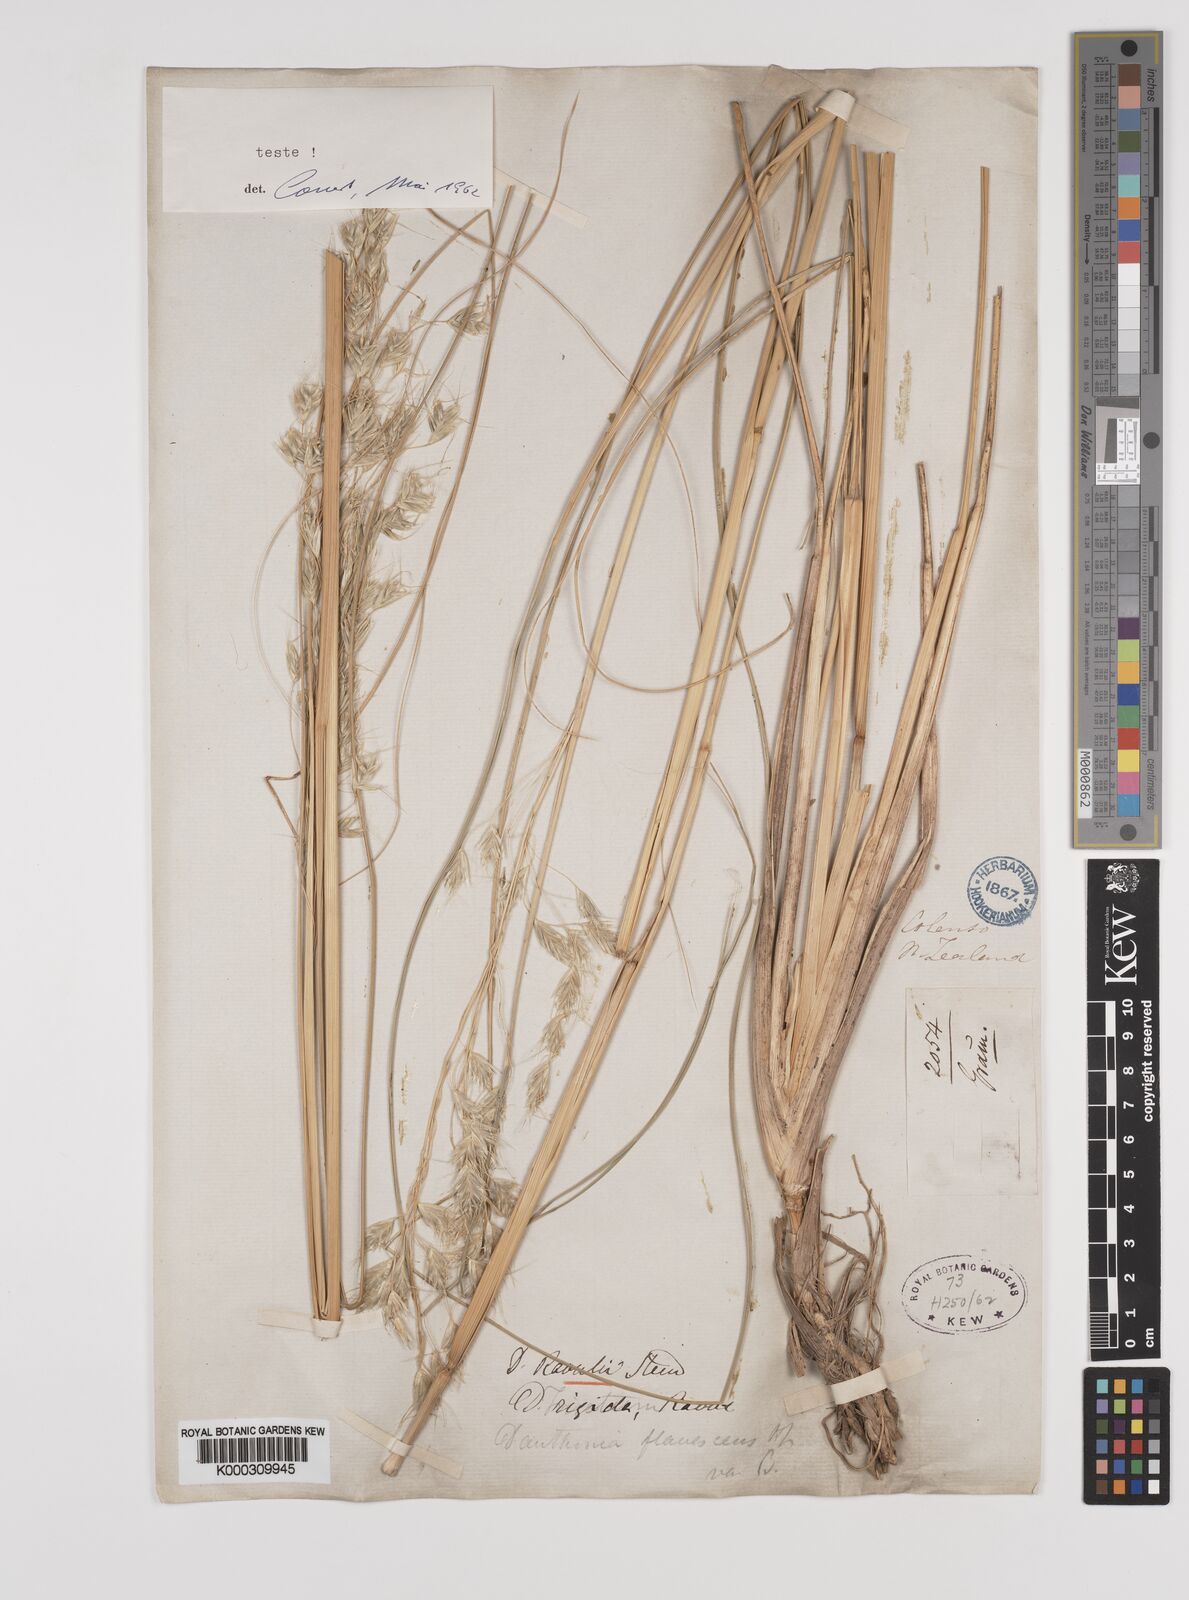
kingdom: Plantae
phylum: Tracheophyta
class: Liliopsida
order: Poales
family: Poaceae
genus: Chionochloa
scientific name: Chionochloa pallens
